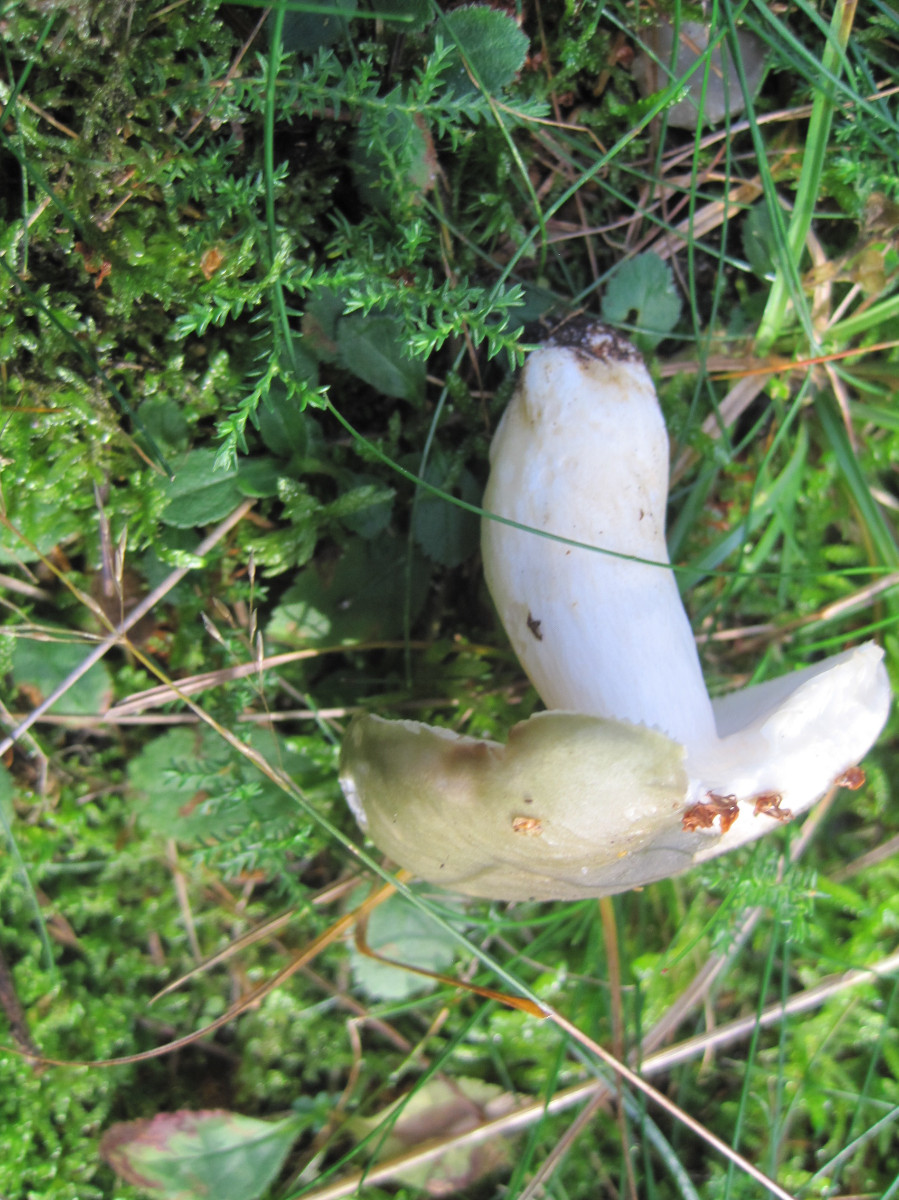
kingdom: Fungi
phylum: Basidiomycota
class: Agaricomycetes
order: Russulales
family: Russulaceae
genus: Russula
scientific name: Russula cyanoxantha
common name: broget skørhat
